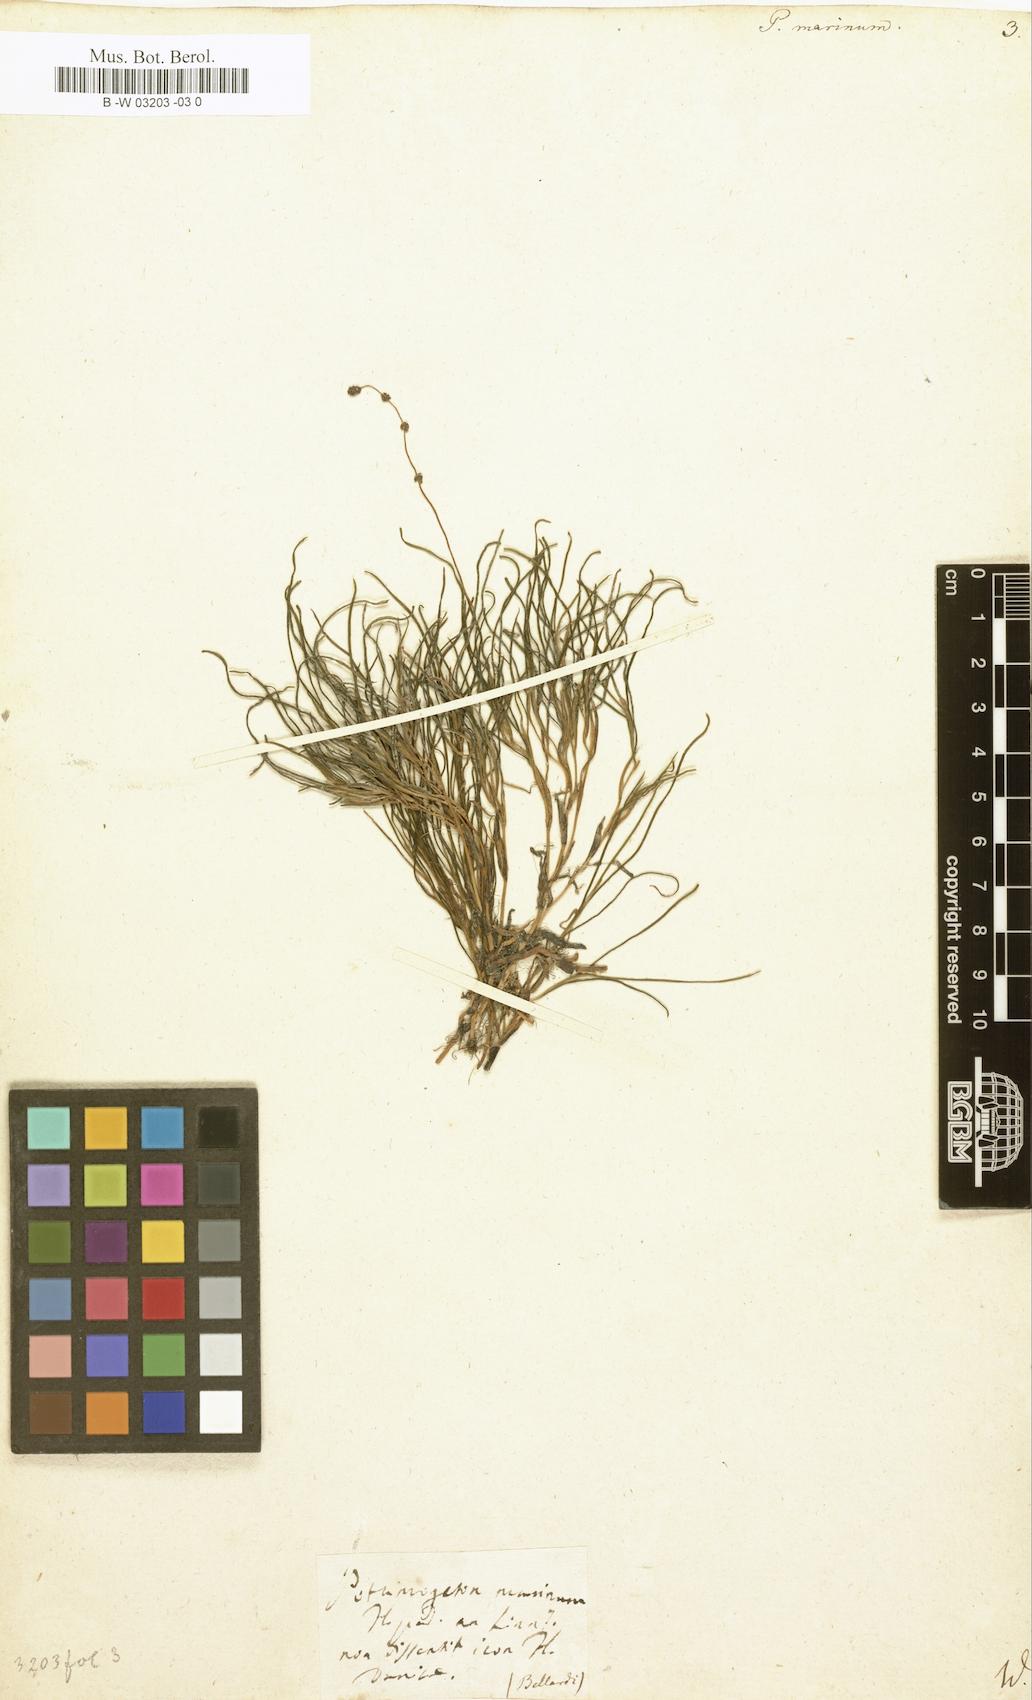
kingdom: Plantae
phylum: Tracheophyta
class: Liliopsida
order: Alismatales
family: Potamogetonaceae
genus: Potamogeton
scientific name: Potamogeton marinus
